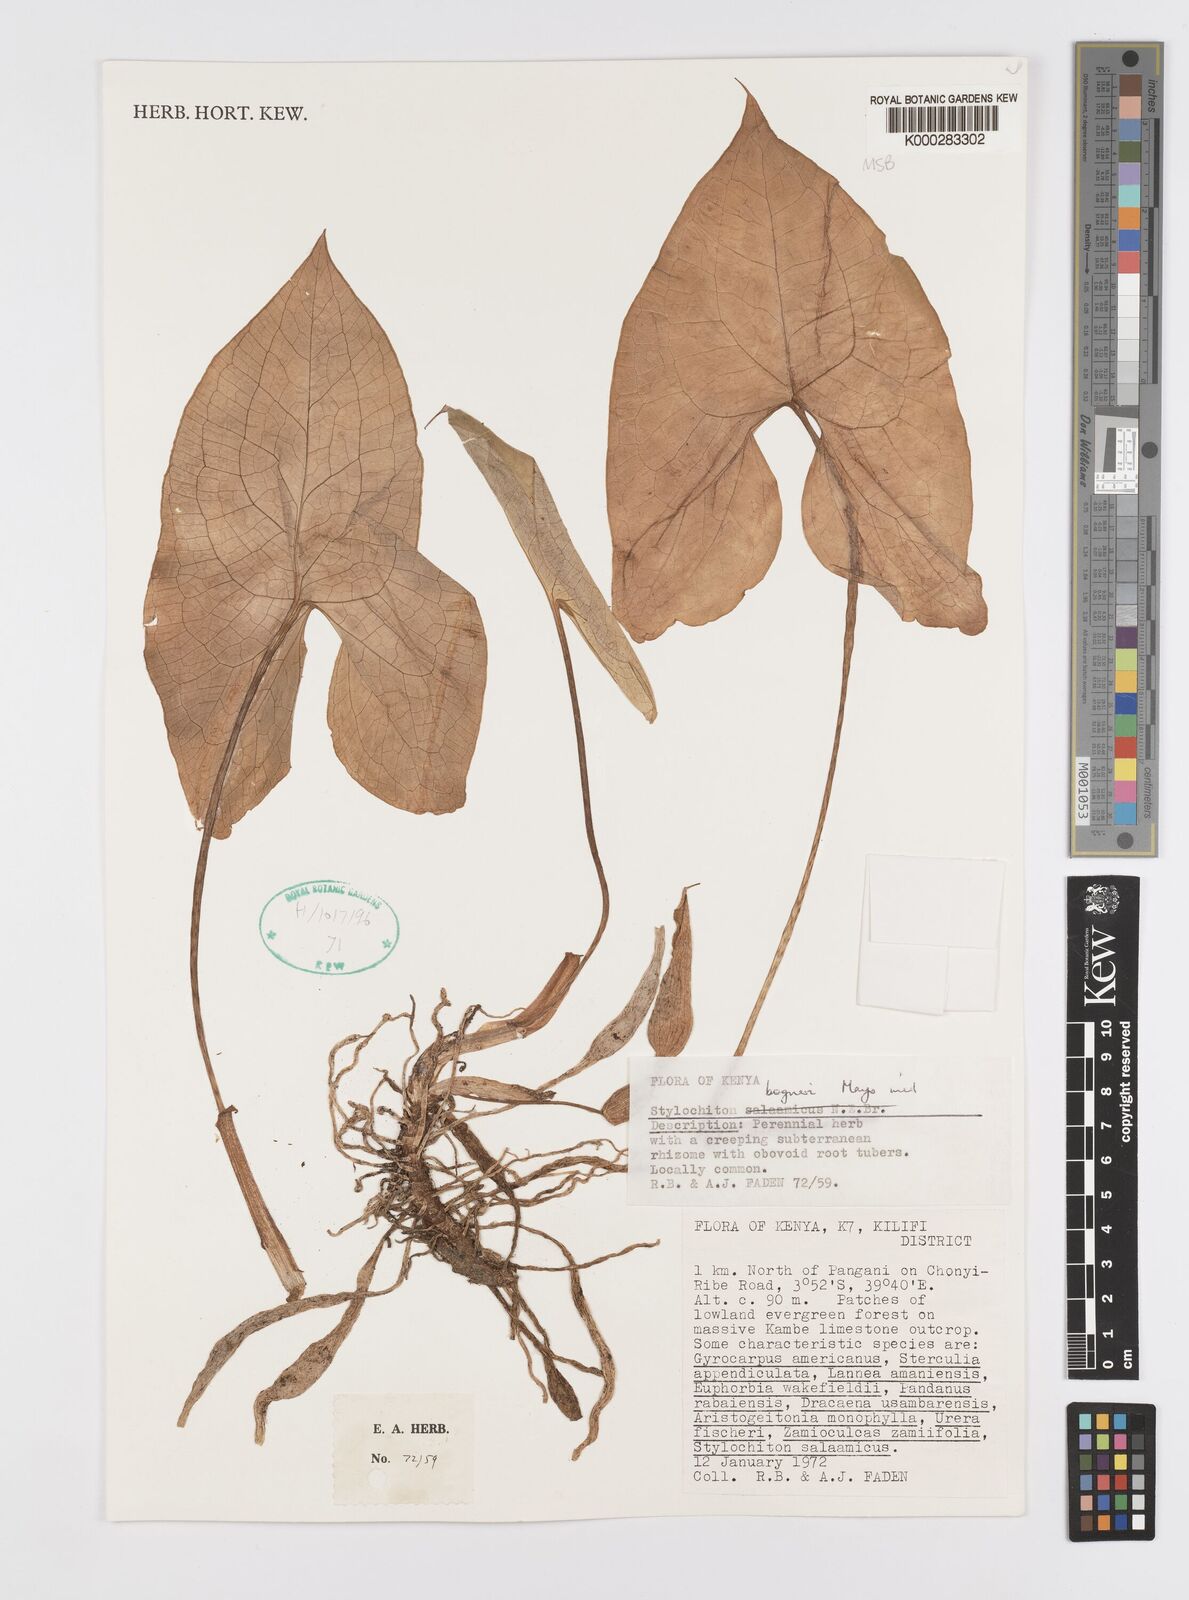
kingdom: Plantae
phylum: Tracheophyta
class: Liliopsida
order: Alismatales
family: Araceae
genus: Stylochaeton
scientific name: Stylochaeton bogneri
